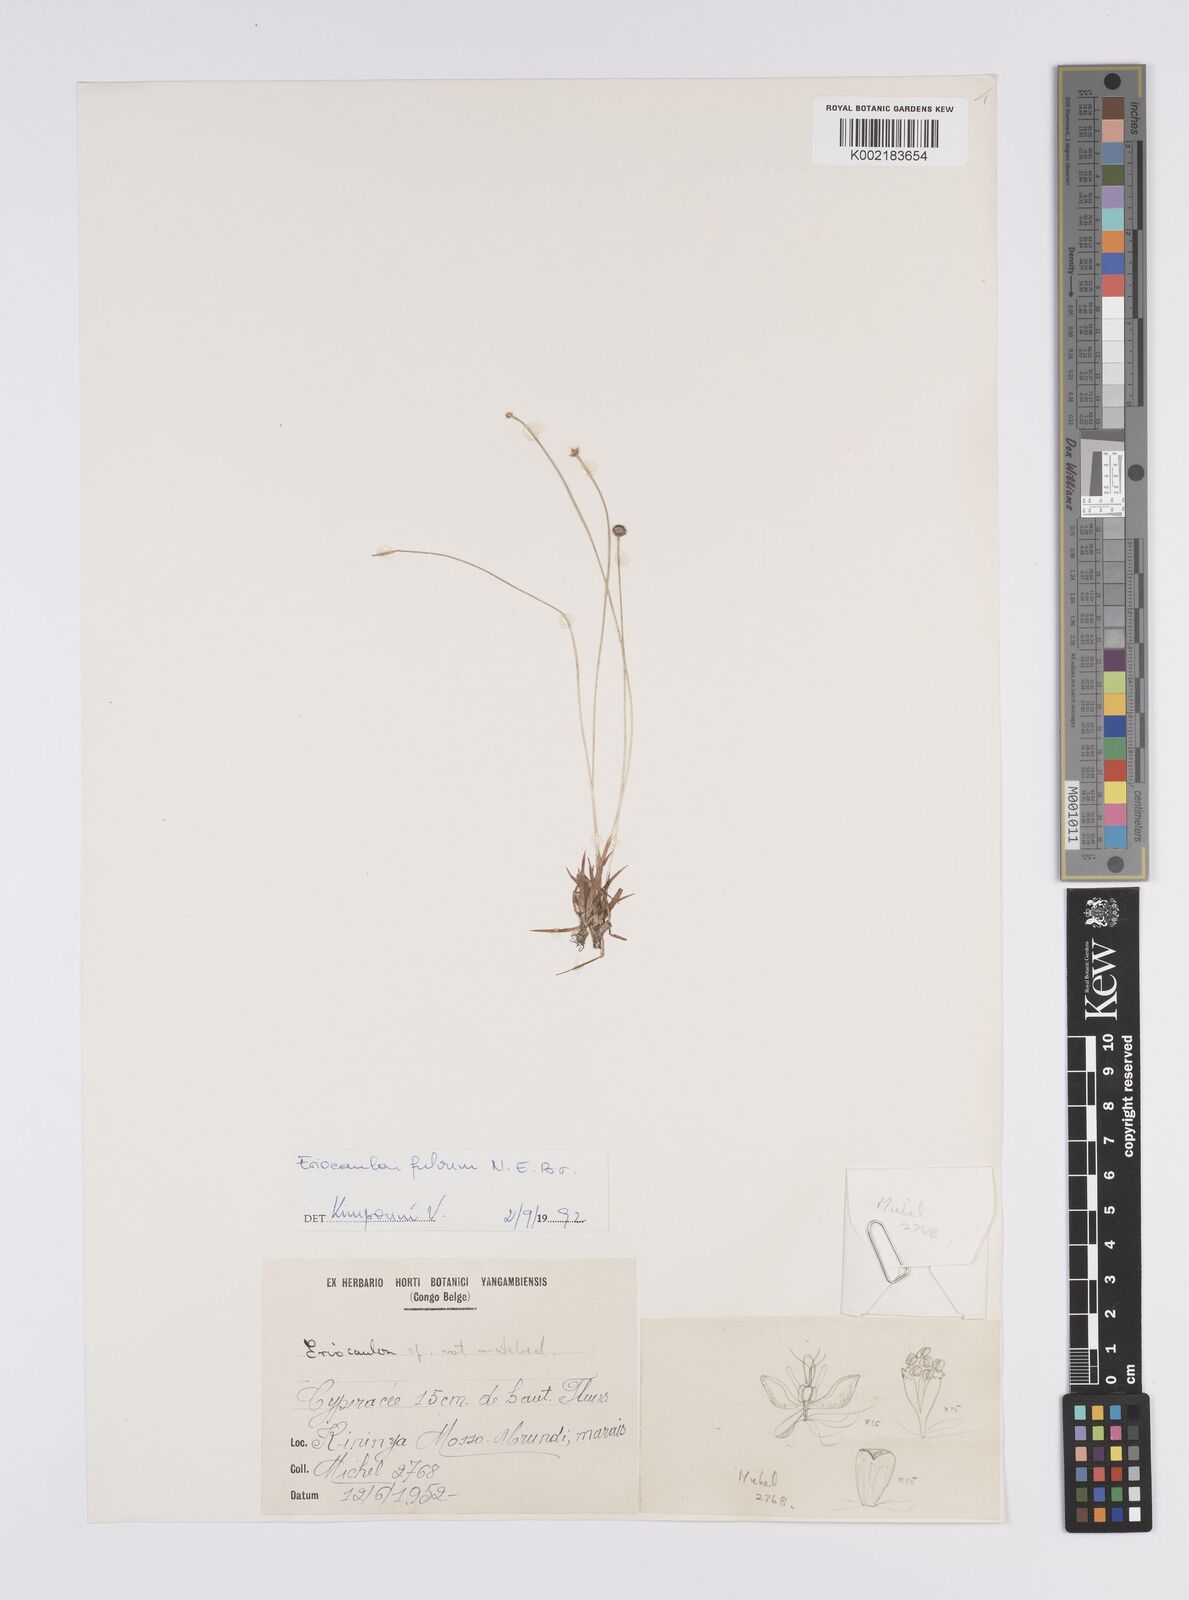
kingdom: Plantae
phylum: Tracheophyta
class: Liliopsida
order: Poales
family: Eriocaulaceae
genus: Eriocaulon
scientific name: Eriocaulon fulvum
